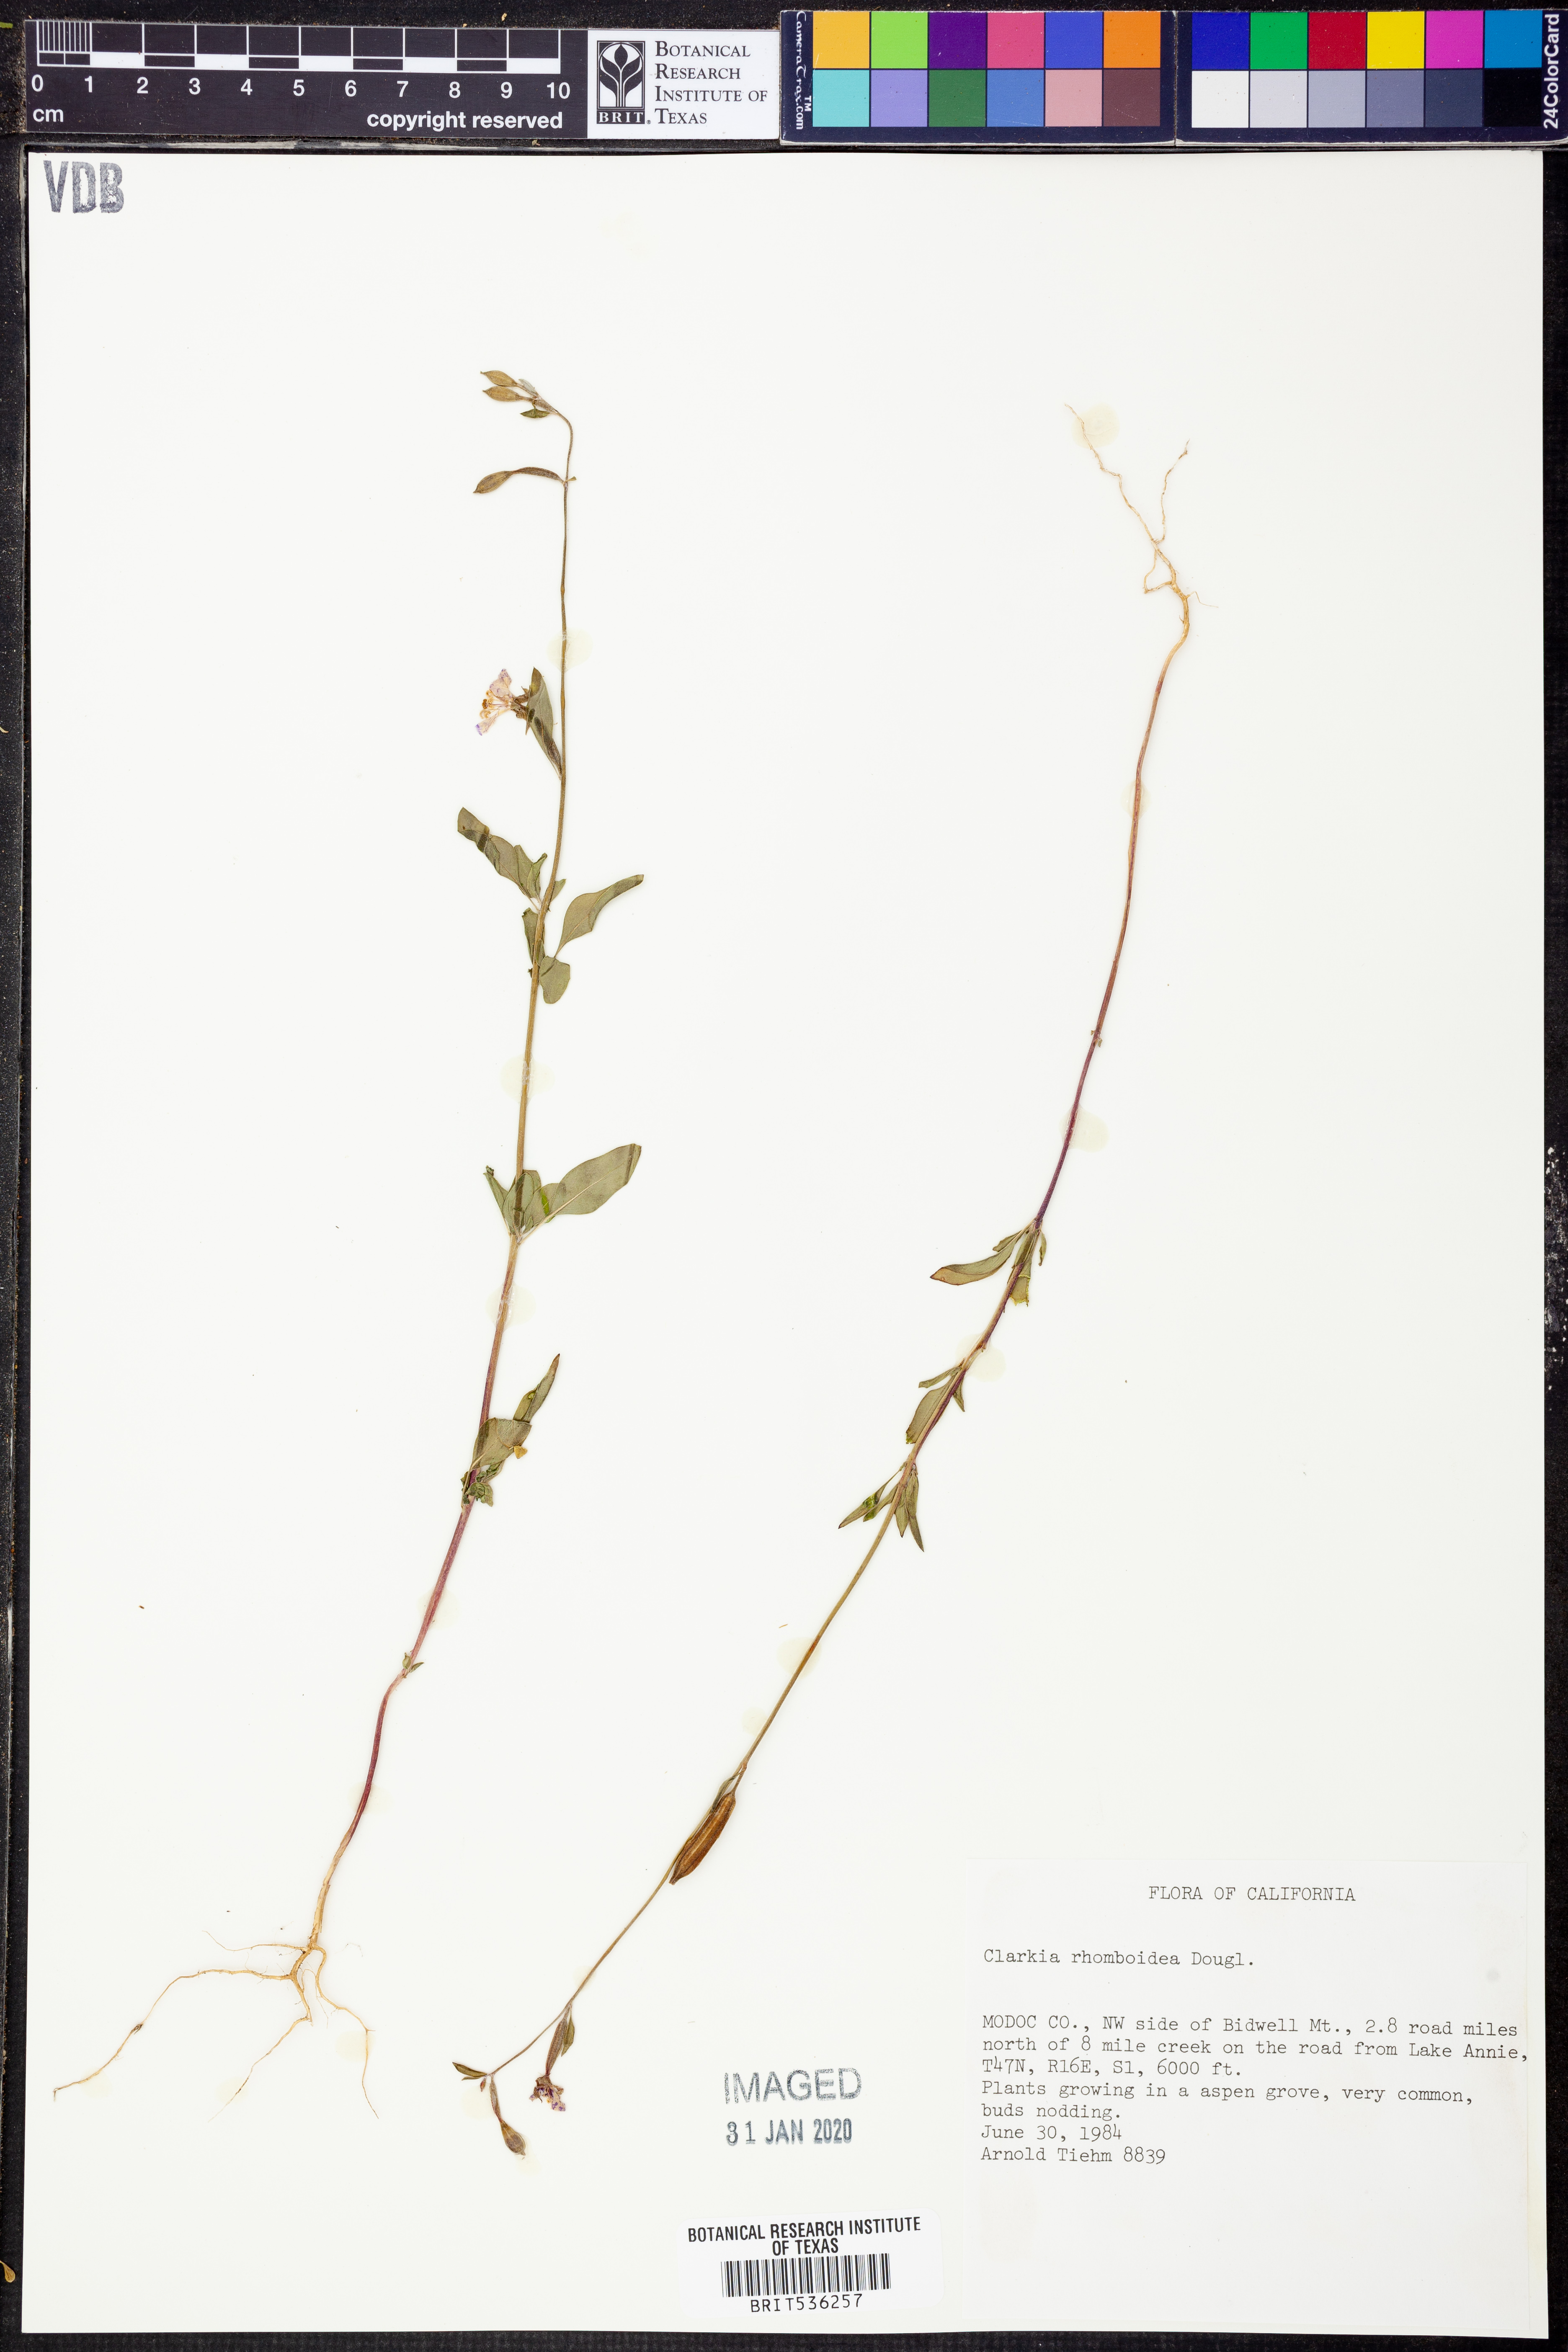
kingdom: Plantae
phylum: Tracheophyta
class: Magnoliopsida
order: Myrtales
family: Onagraceae
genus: Clarkia
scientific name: Clarkia rhomboidea
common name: Broadleaf clarkia
